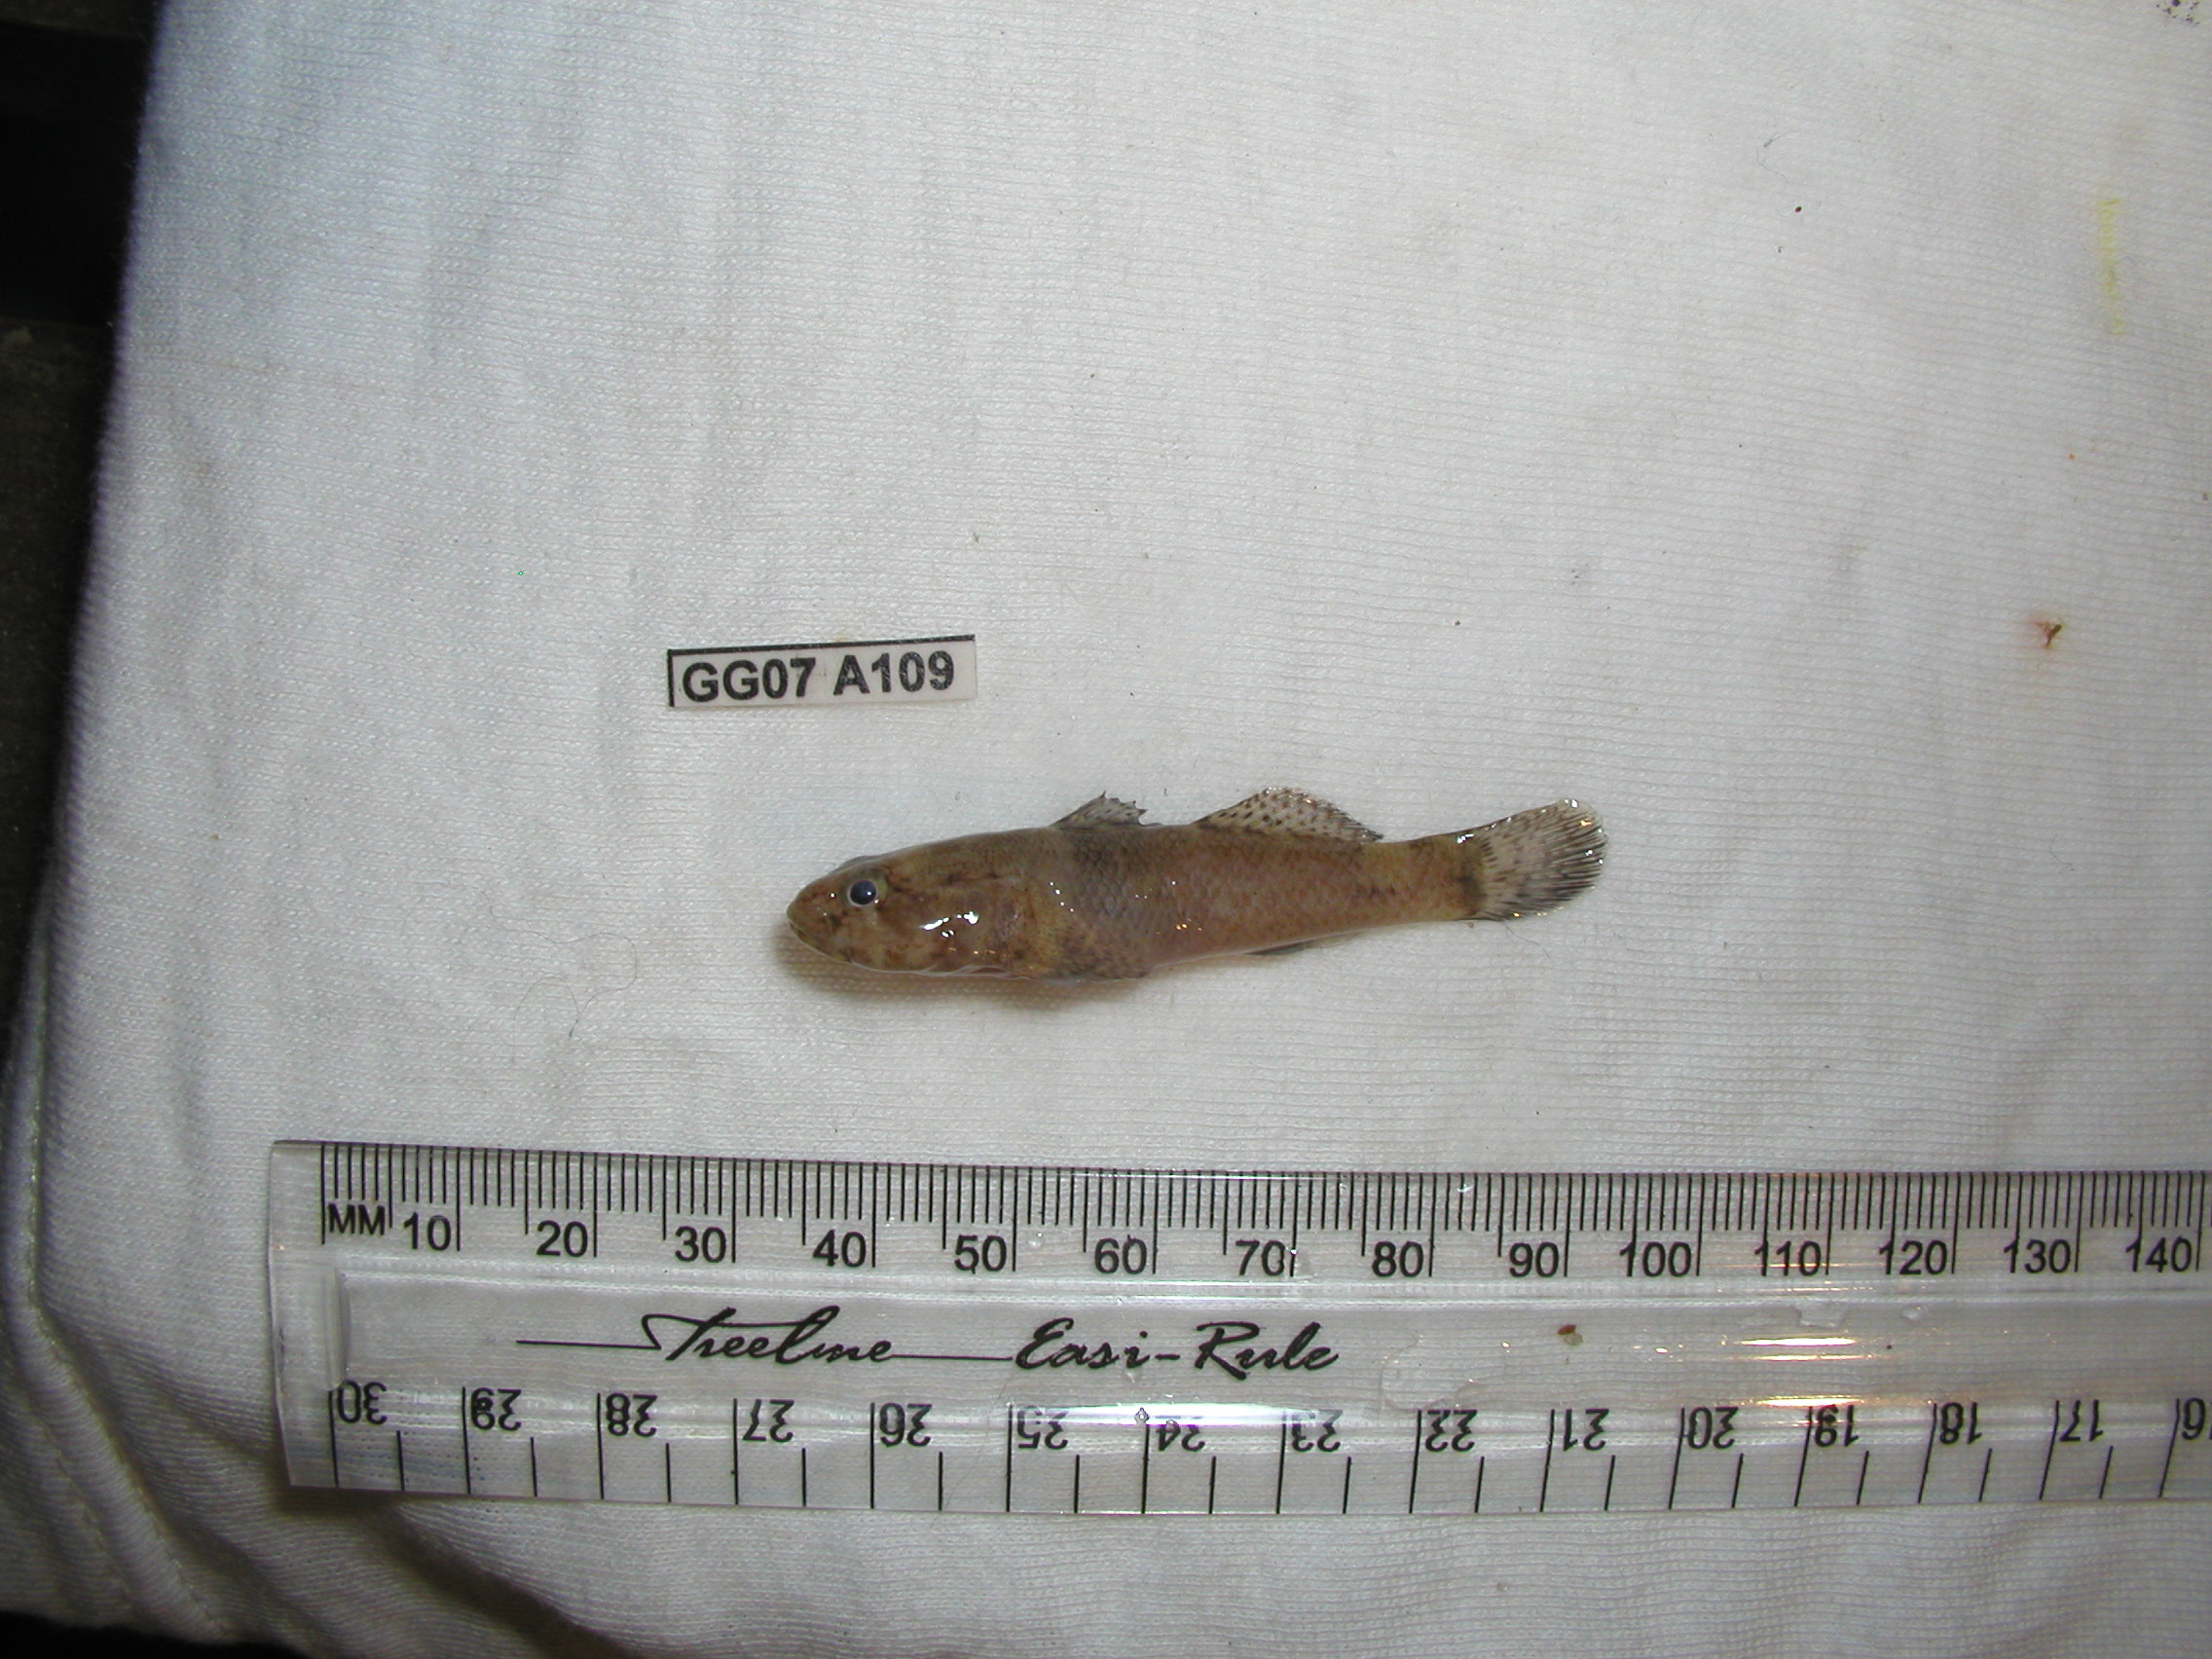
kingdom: Animalia
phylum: Chordata
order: Perciformes
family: Gobiidae
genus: Bathygobius
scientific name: Bathygobius cotticeps
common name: Cheekscaled frillgoby
